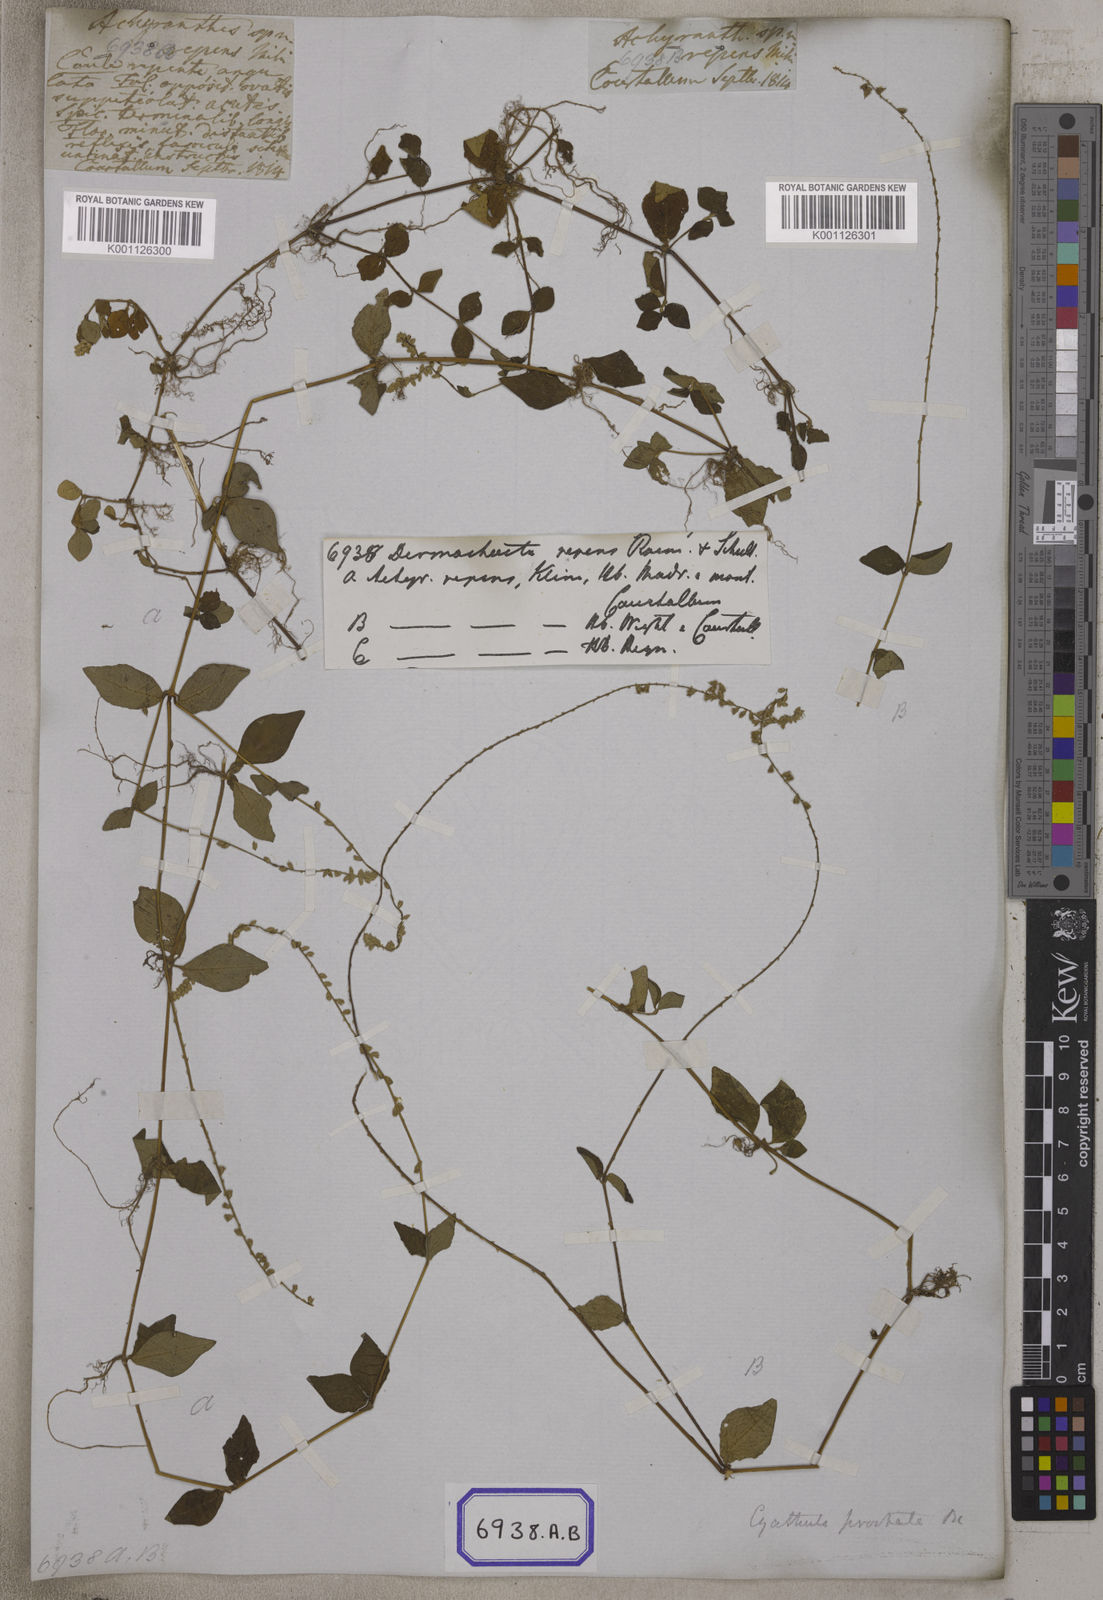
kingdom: Plantae
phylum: Tracheophyta
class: Magnoliopsida
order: Caryophyllales
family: Amaranthaceae
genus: Cyathula
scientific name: Cyathula prostrata
